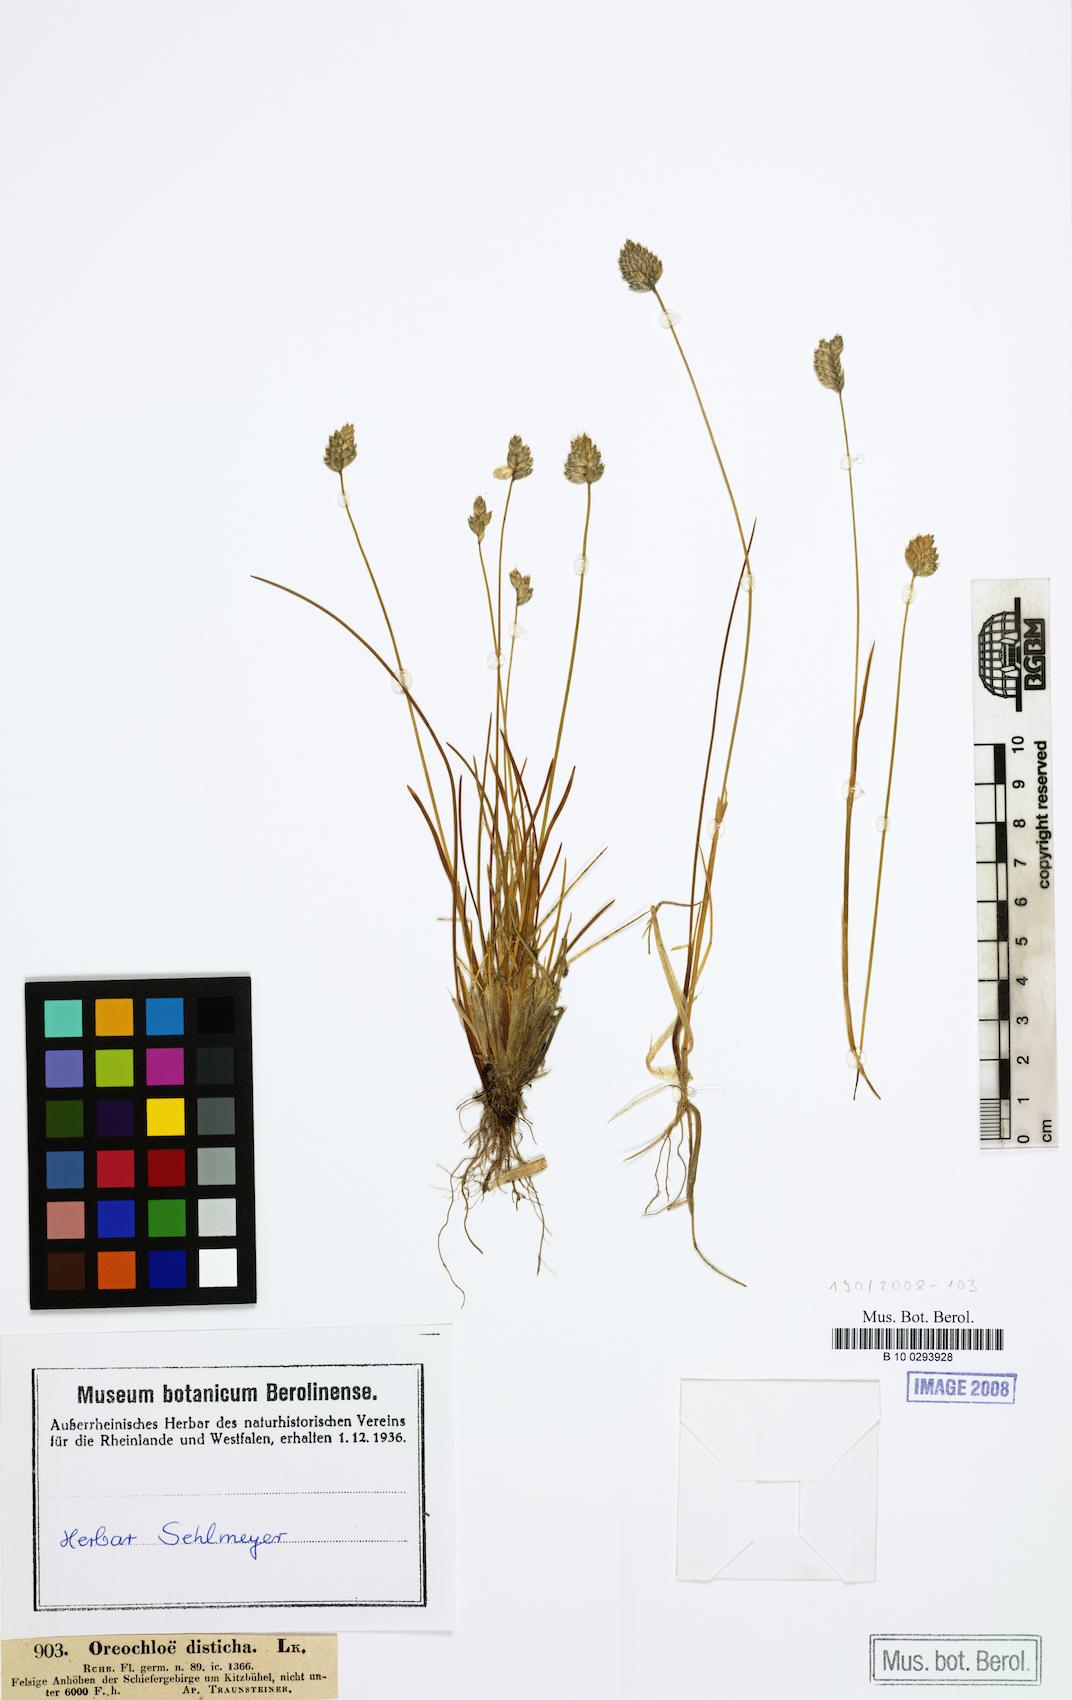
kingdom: Plantae
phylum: Tracheophyta
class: Liliopsida
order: Poales
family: Poaceae
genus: Oreochloa
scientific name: Oreochloa disticha
